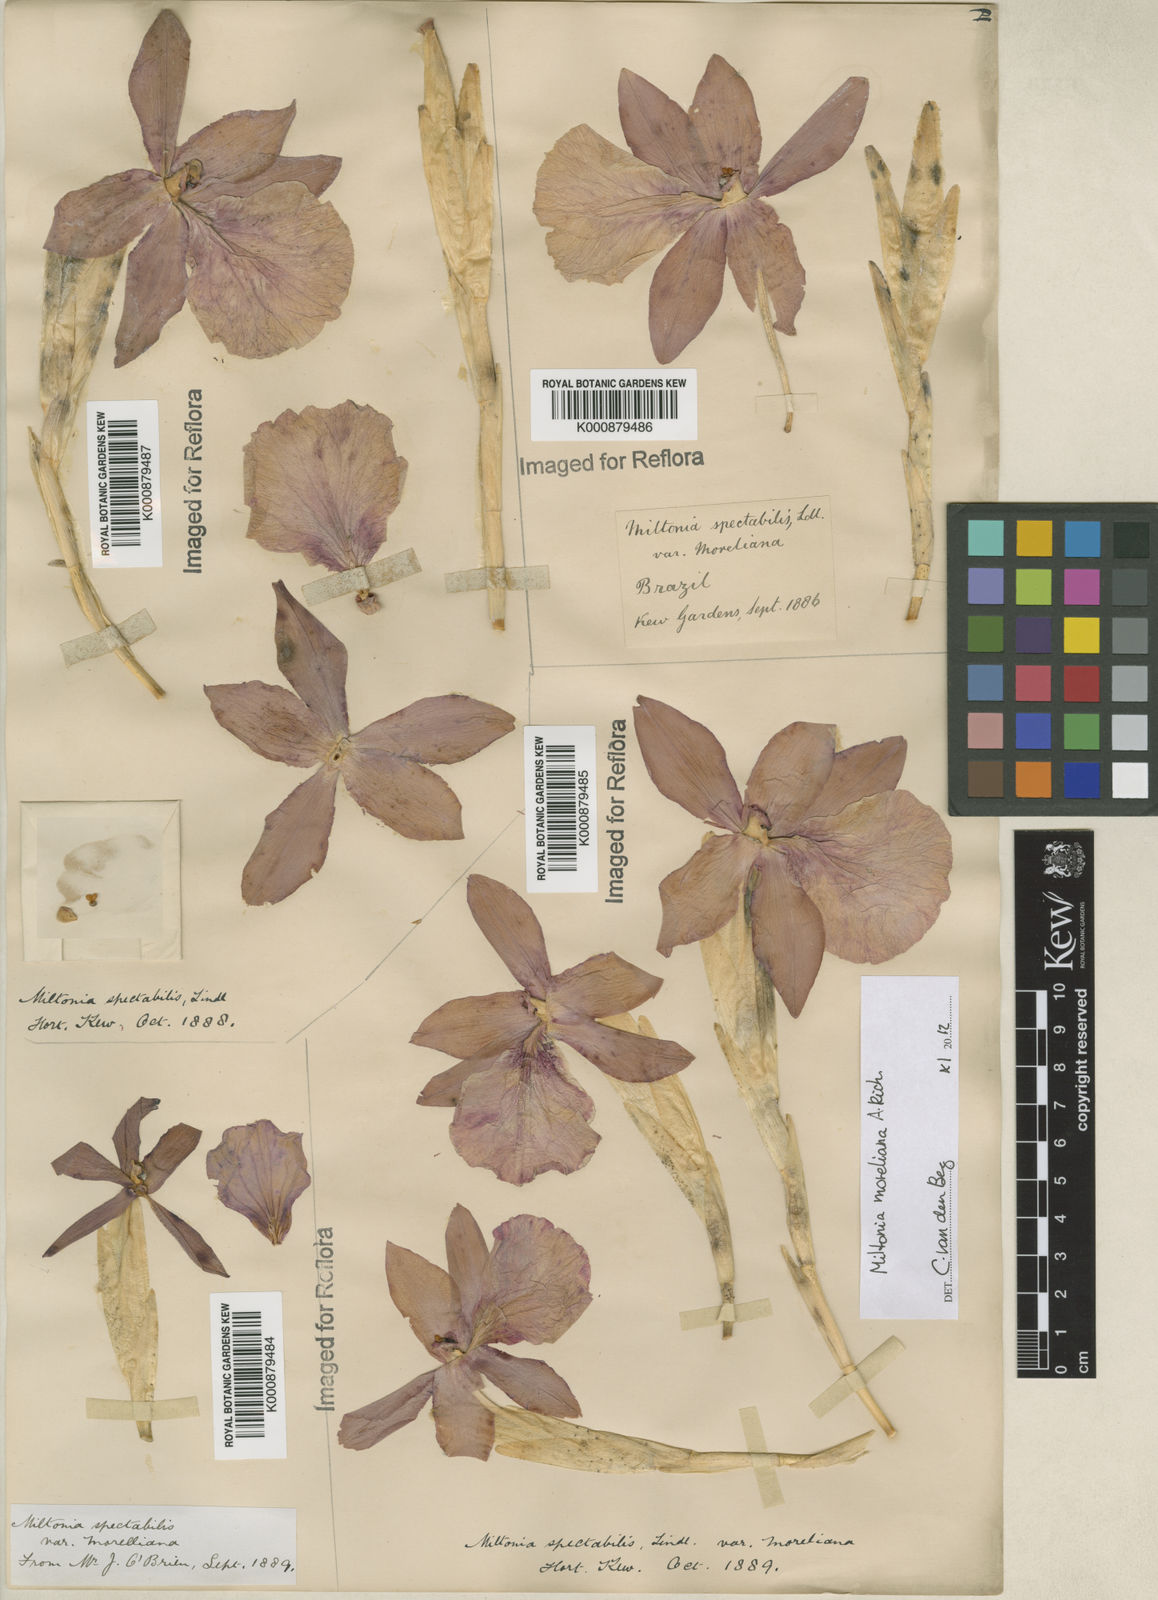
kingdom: Plantae
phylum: Tracheophyta
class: Liliopsida
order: Asparagales
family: Orchidaceae
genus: Miltonia
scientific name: Miltonia moreliana
